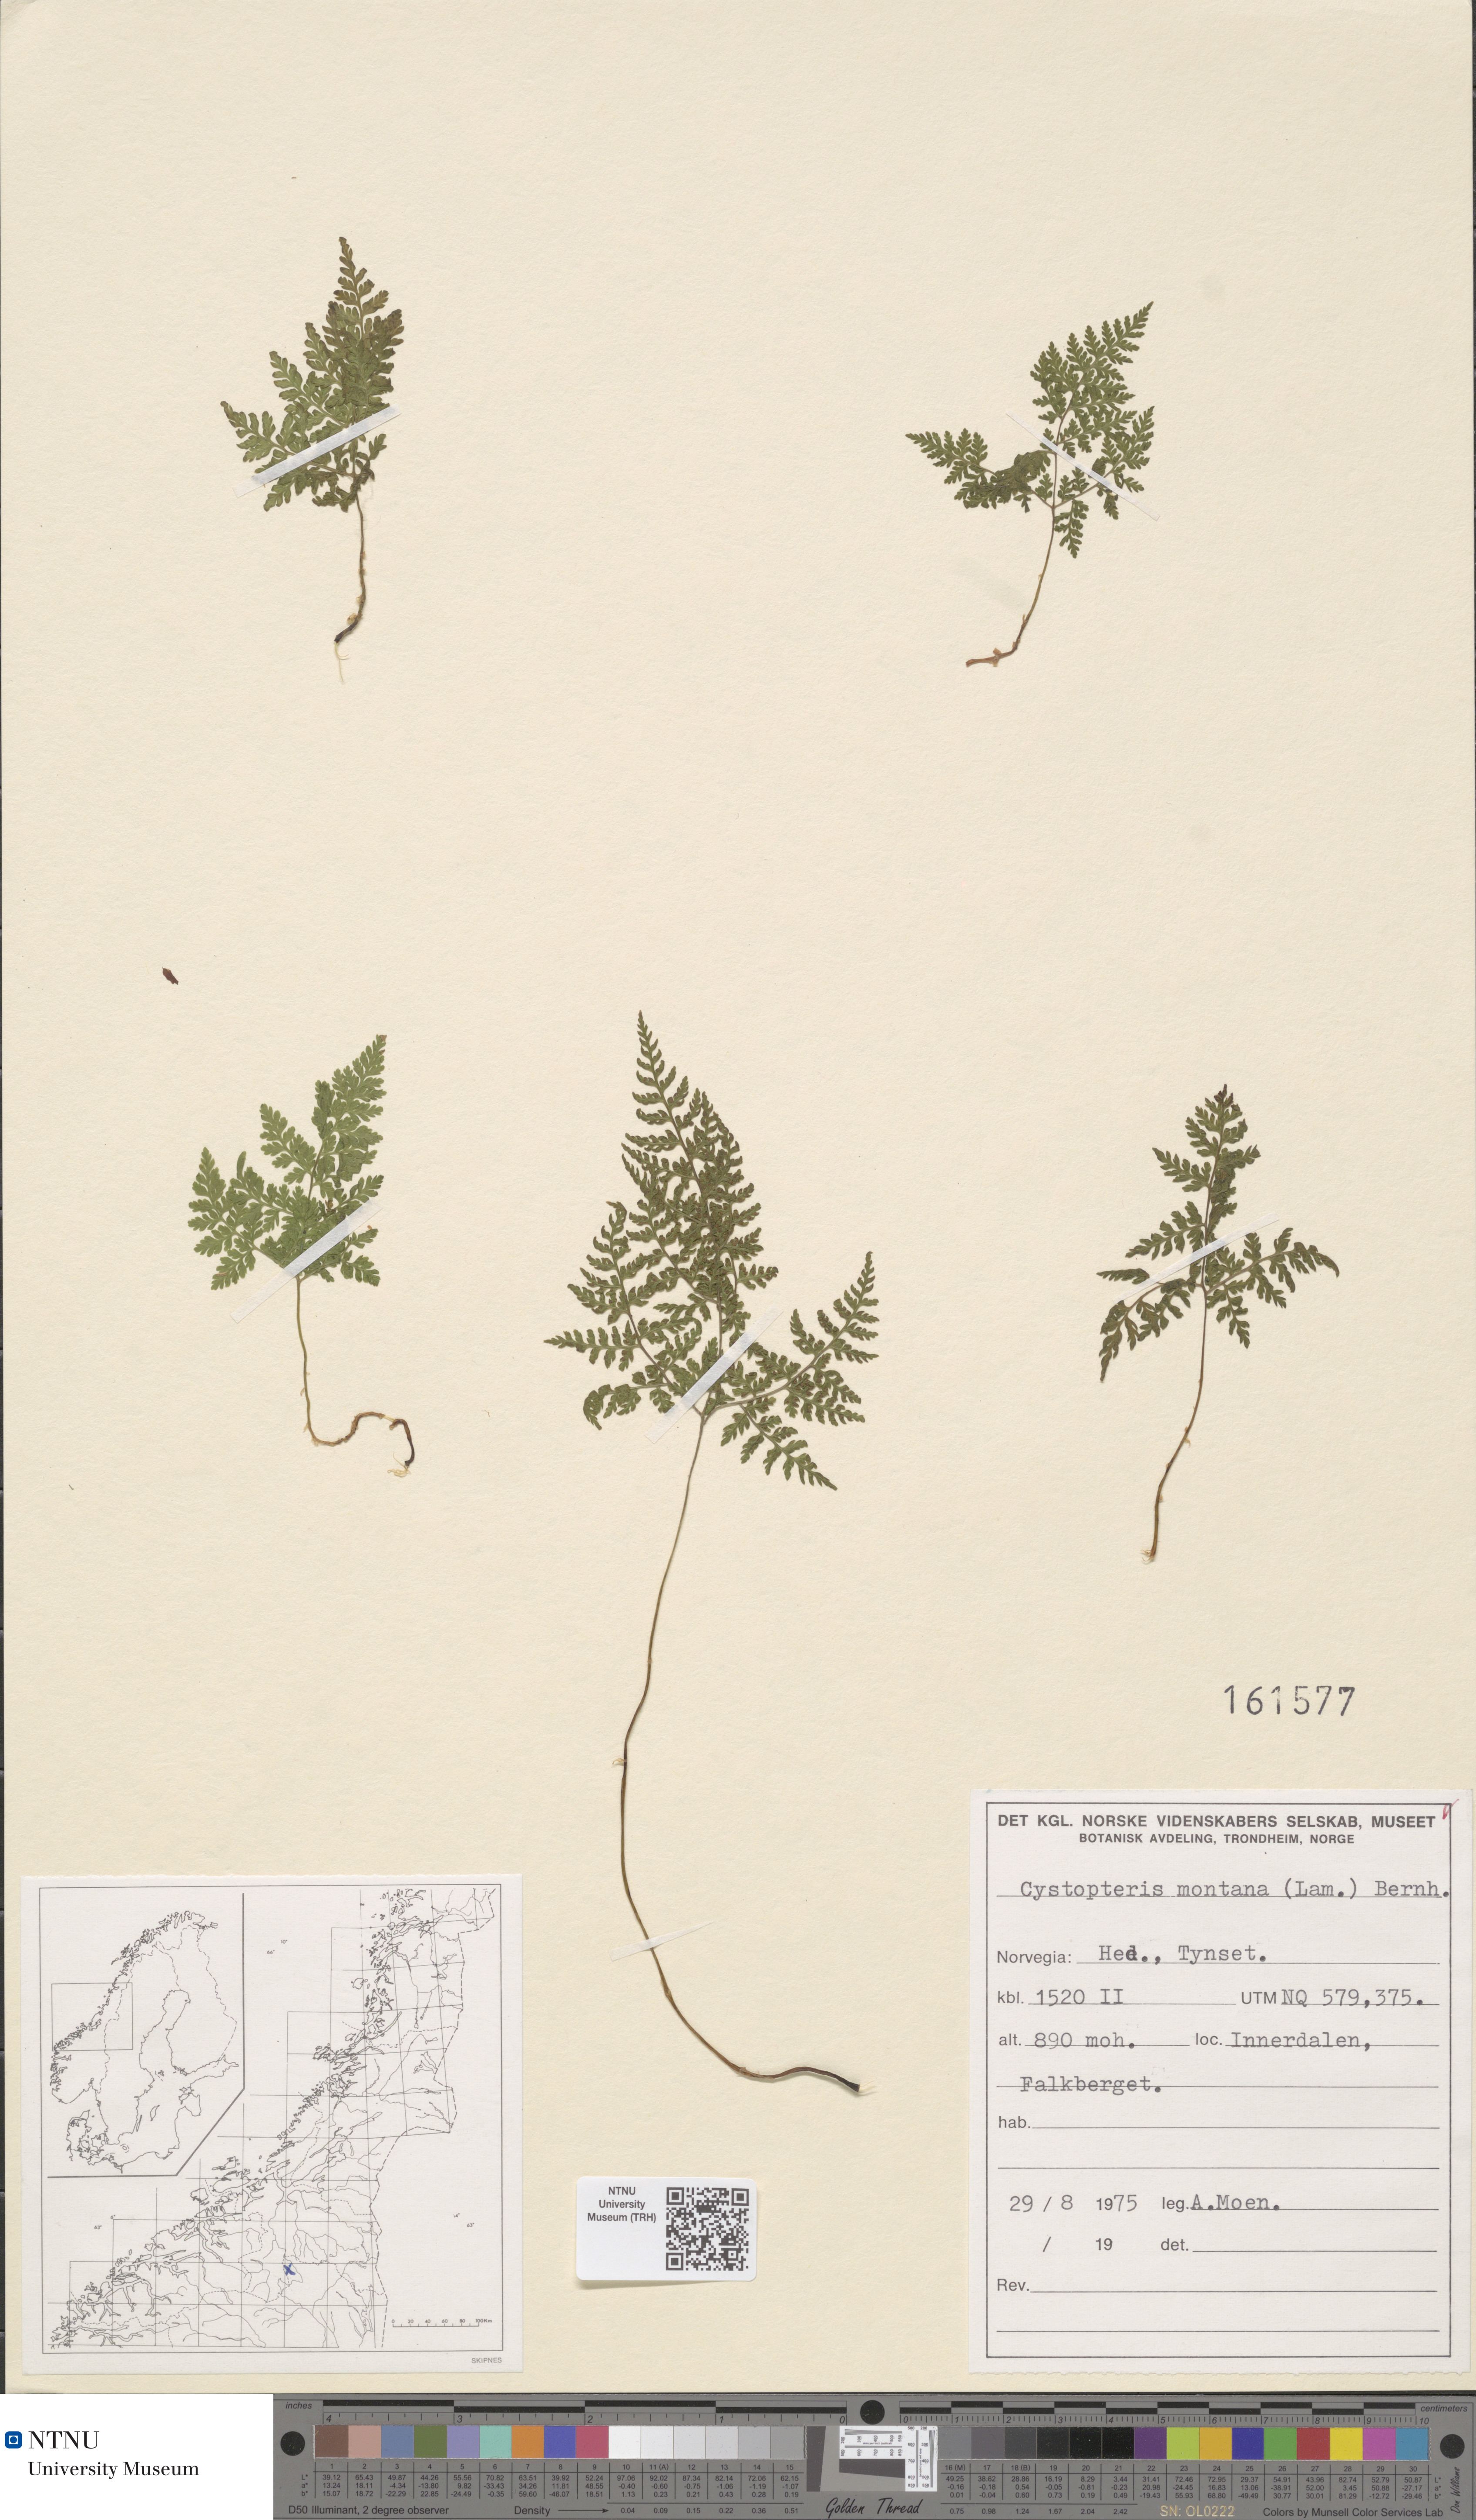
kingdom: Plantae
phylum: Tracheophyta
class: Polypodiopsida
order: Polypodiales
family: Cystopteridaceae
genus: Cystopteris
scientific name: Cystopteris montana
